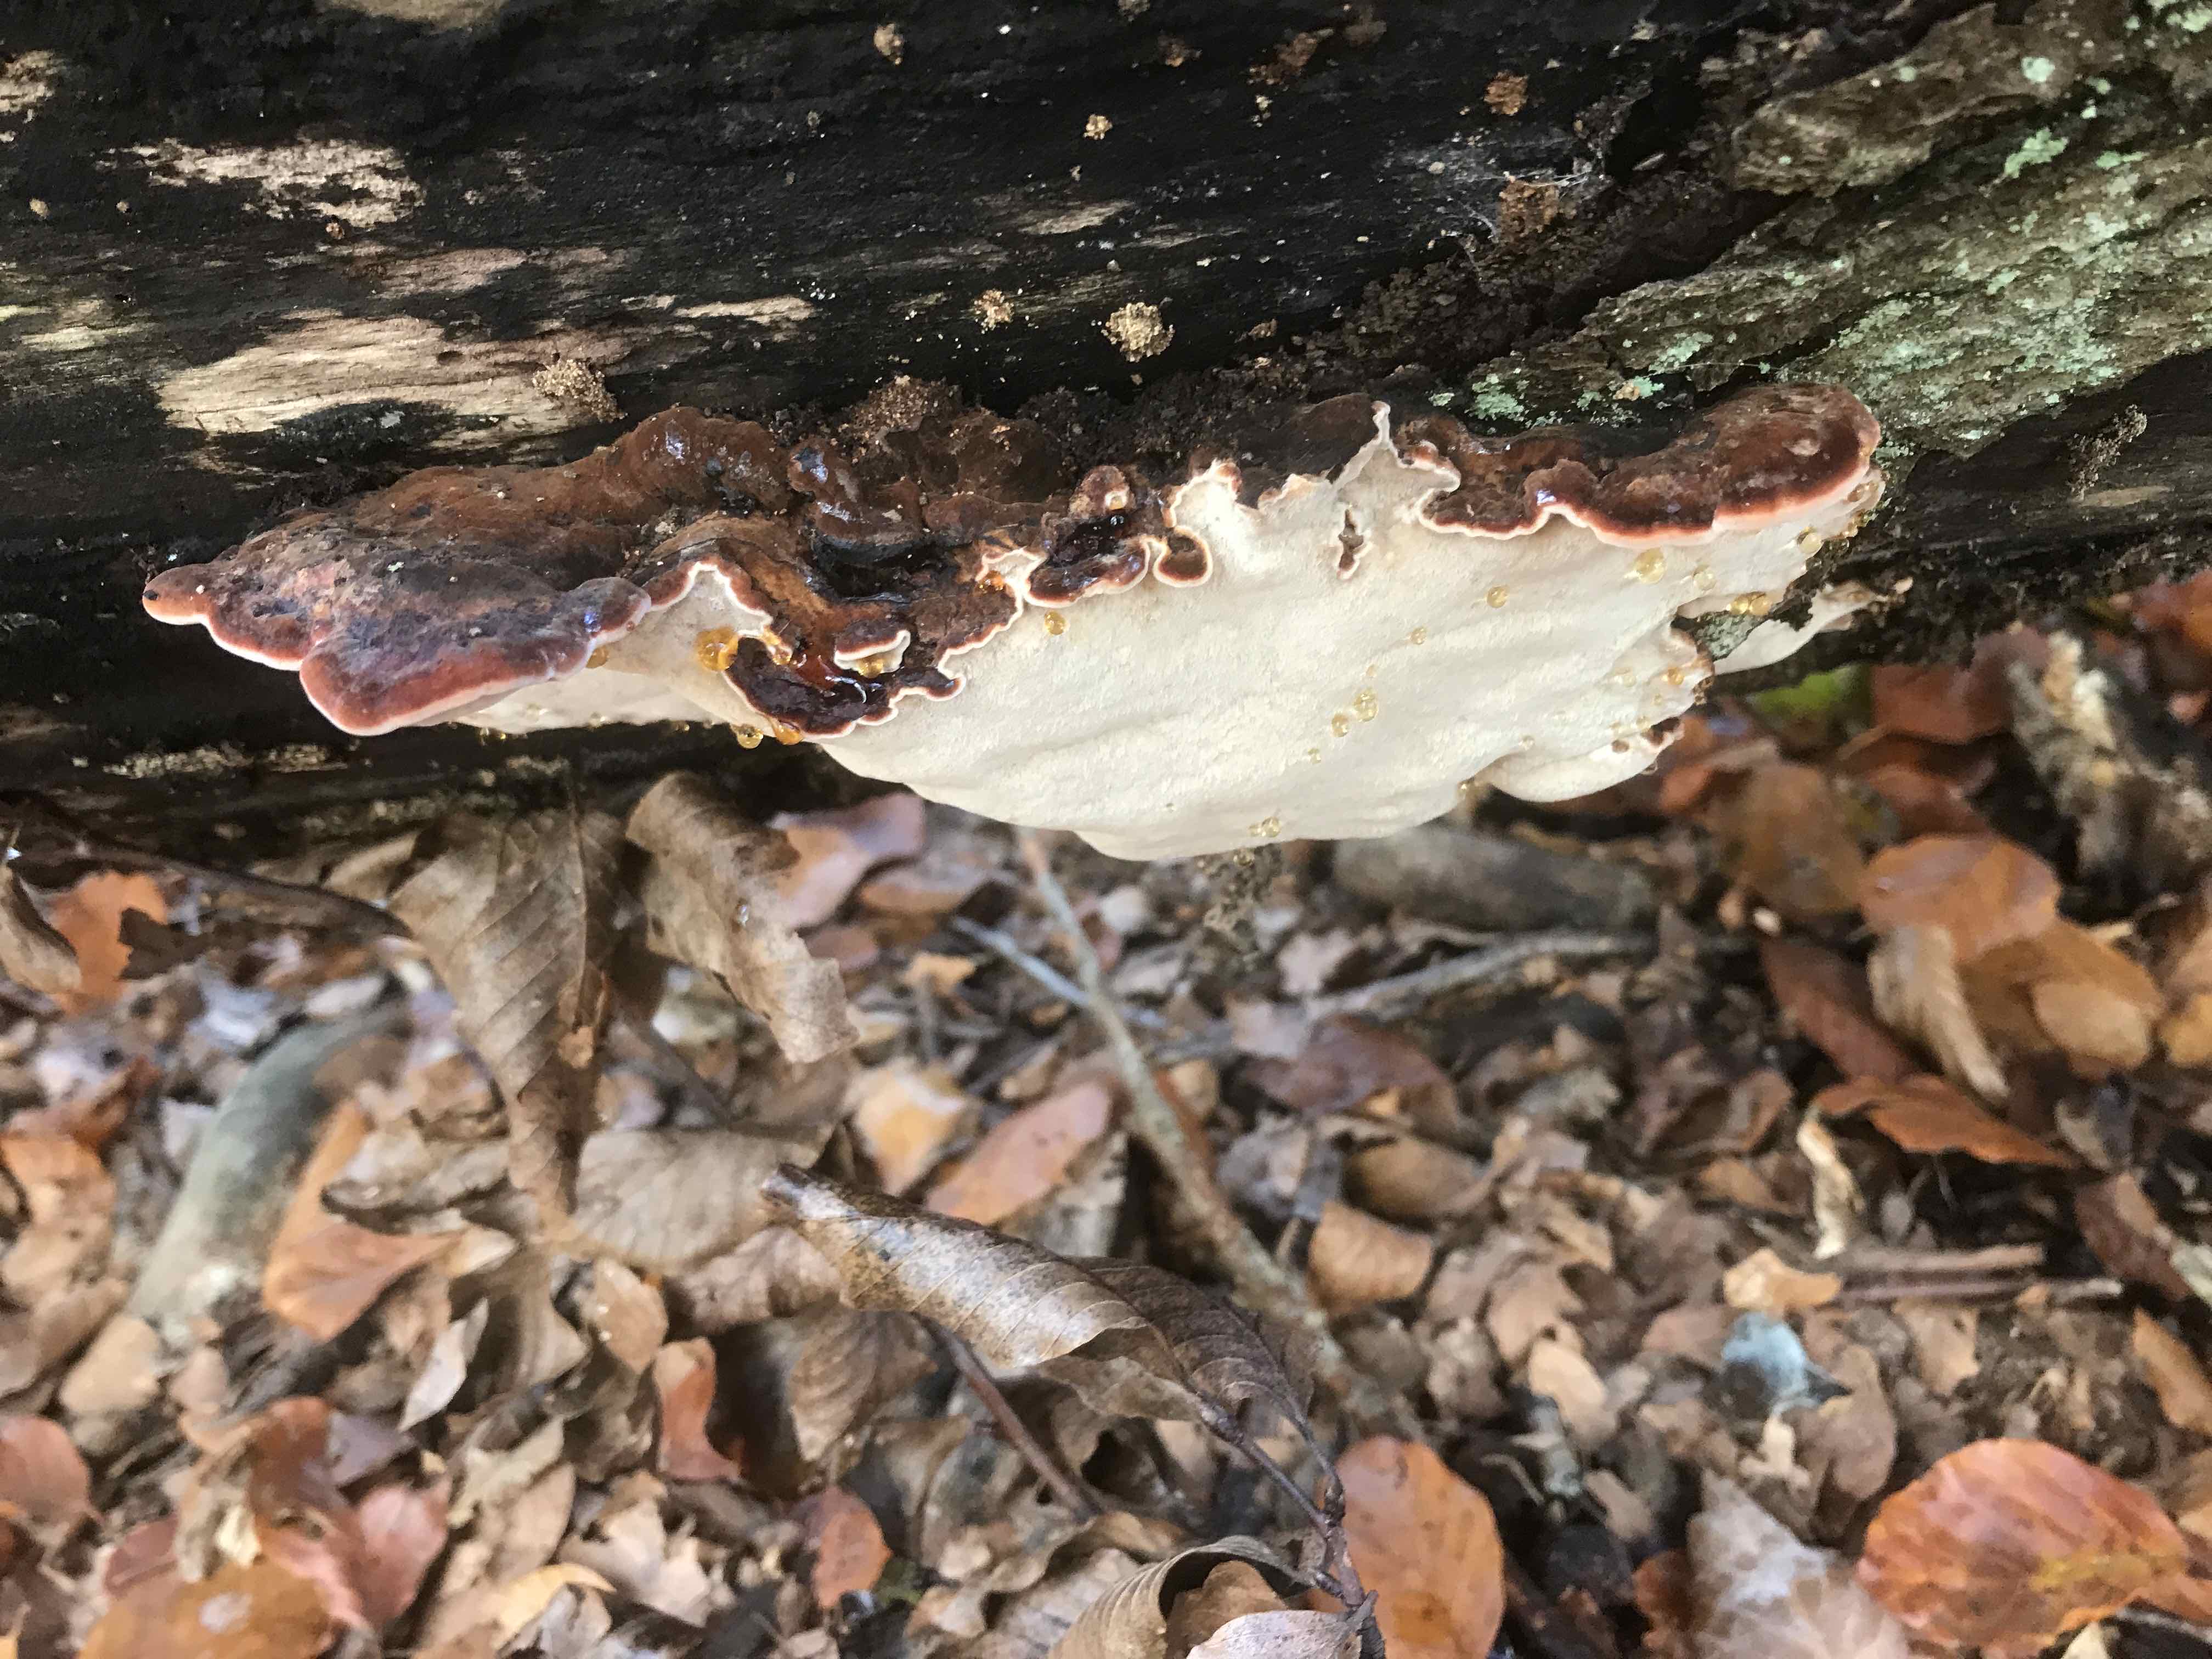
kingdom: Fungi
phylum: Basidiomycota
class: Agaricomycetes
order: Polyporales
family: Ischnodermataceae
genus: Ischnoderma
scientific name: Ischnoderma resinosum
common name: løv-tjæreporesvamp
